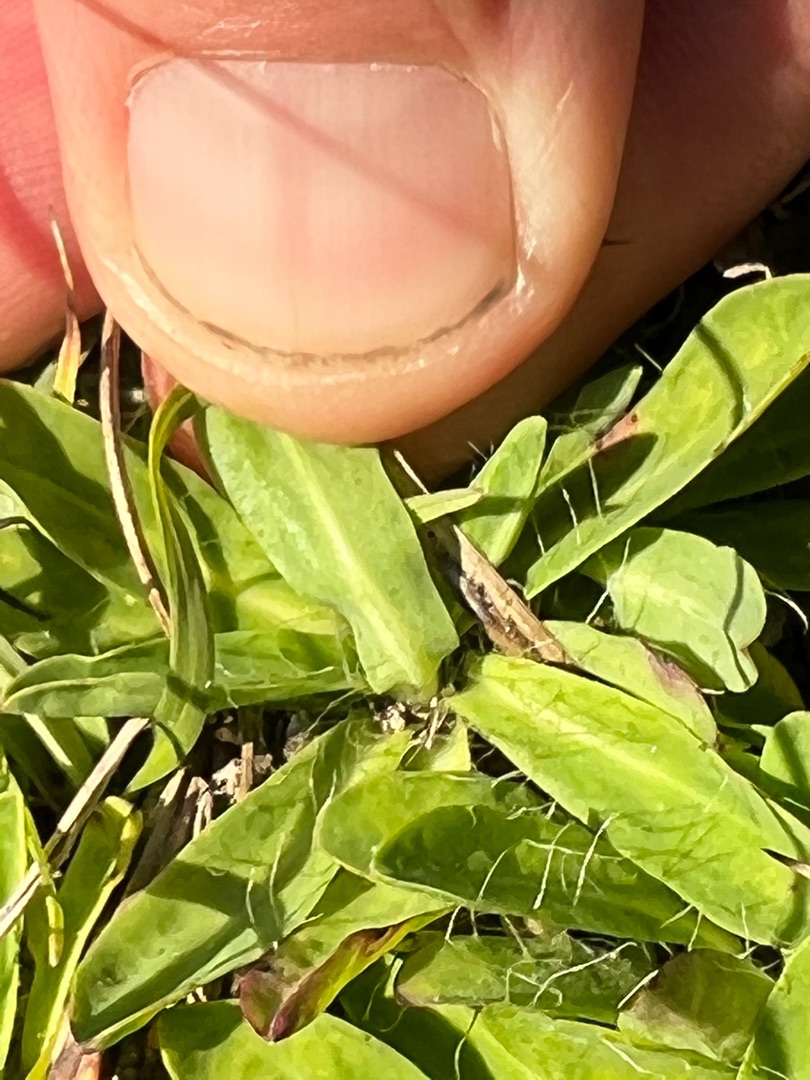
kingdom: Plantae
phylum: Tracheophyta
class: Magnoliopsida
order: Asterales
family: Asteraceae
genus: Pilosella
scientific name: Pilosella lactucella
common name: Lancetbladet høgeurt
